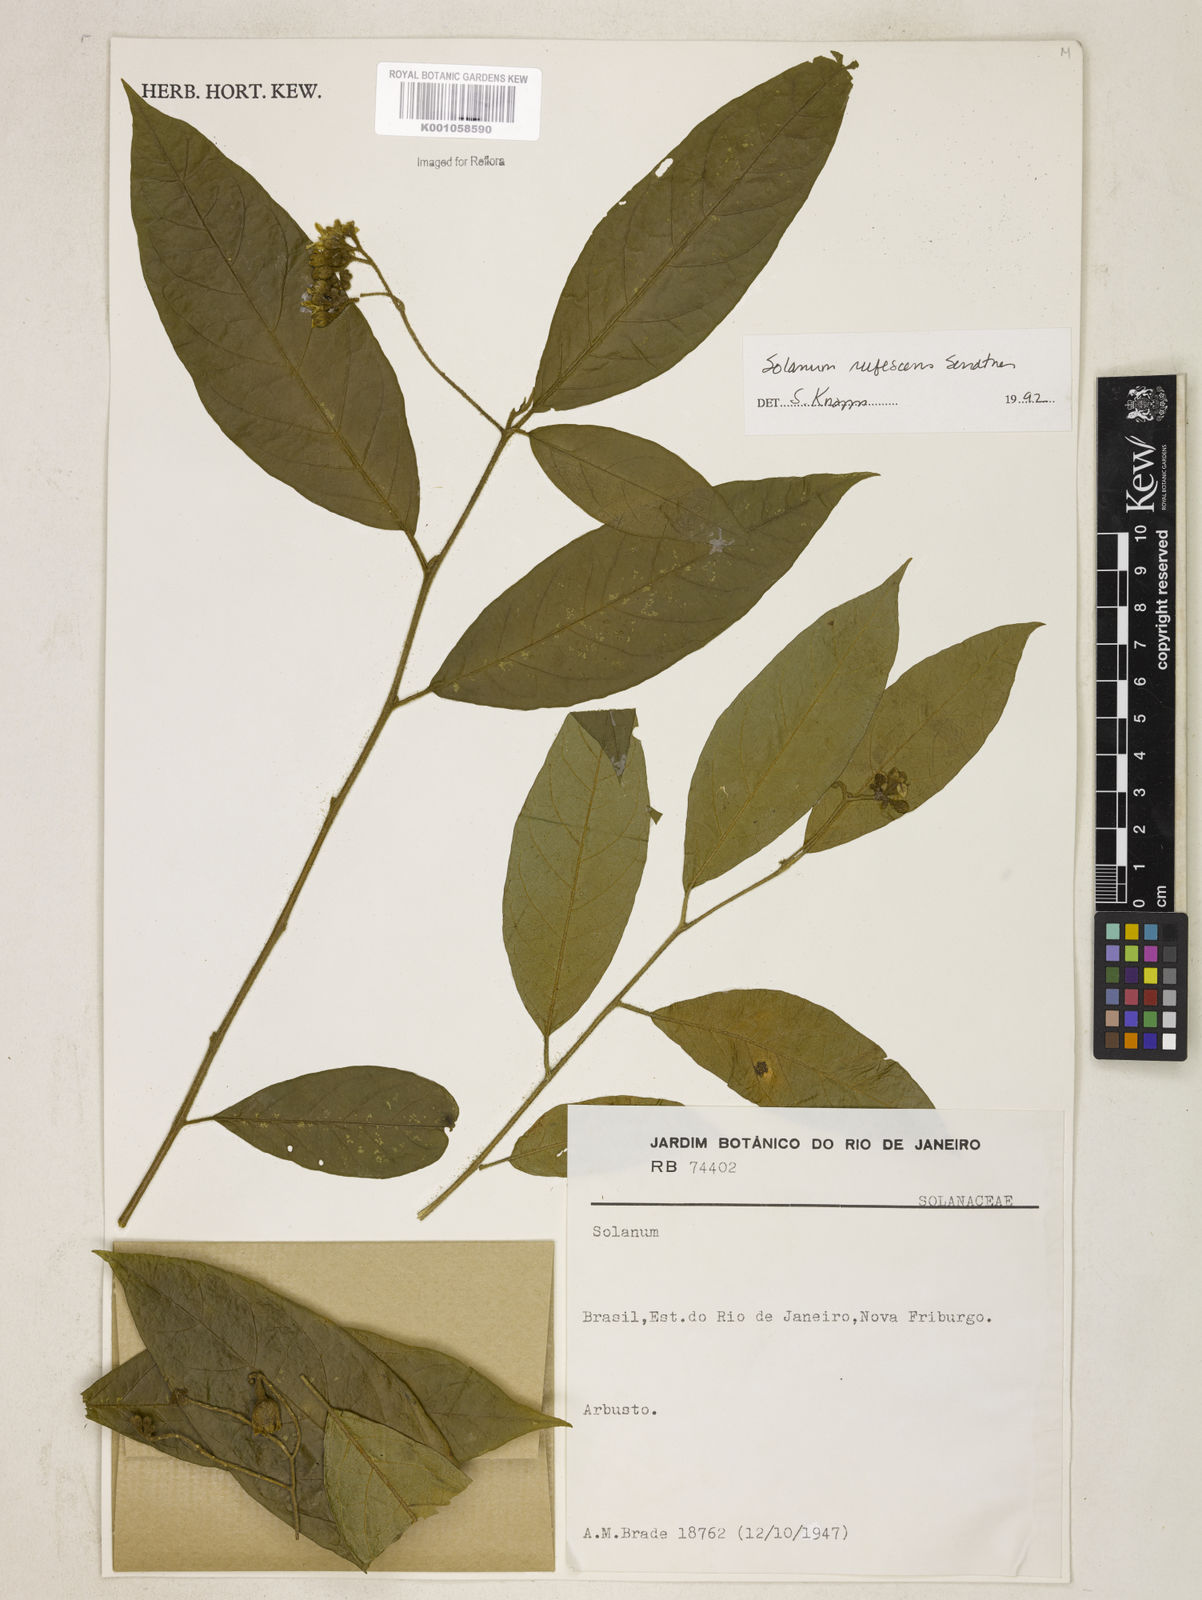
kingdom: Plantae
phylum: Tracheophyta
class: Magnoliopsida
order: Solanales
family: Solanaceae
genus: Solanum
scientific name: Solanum rufescens
